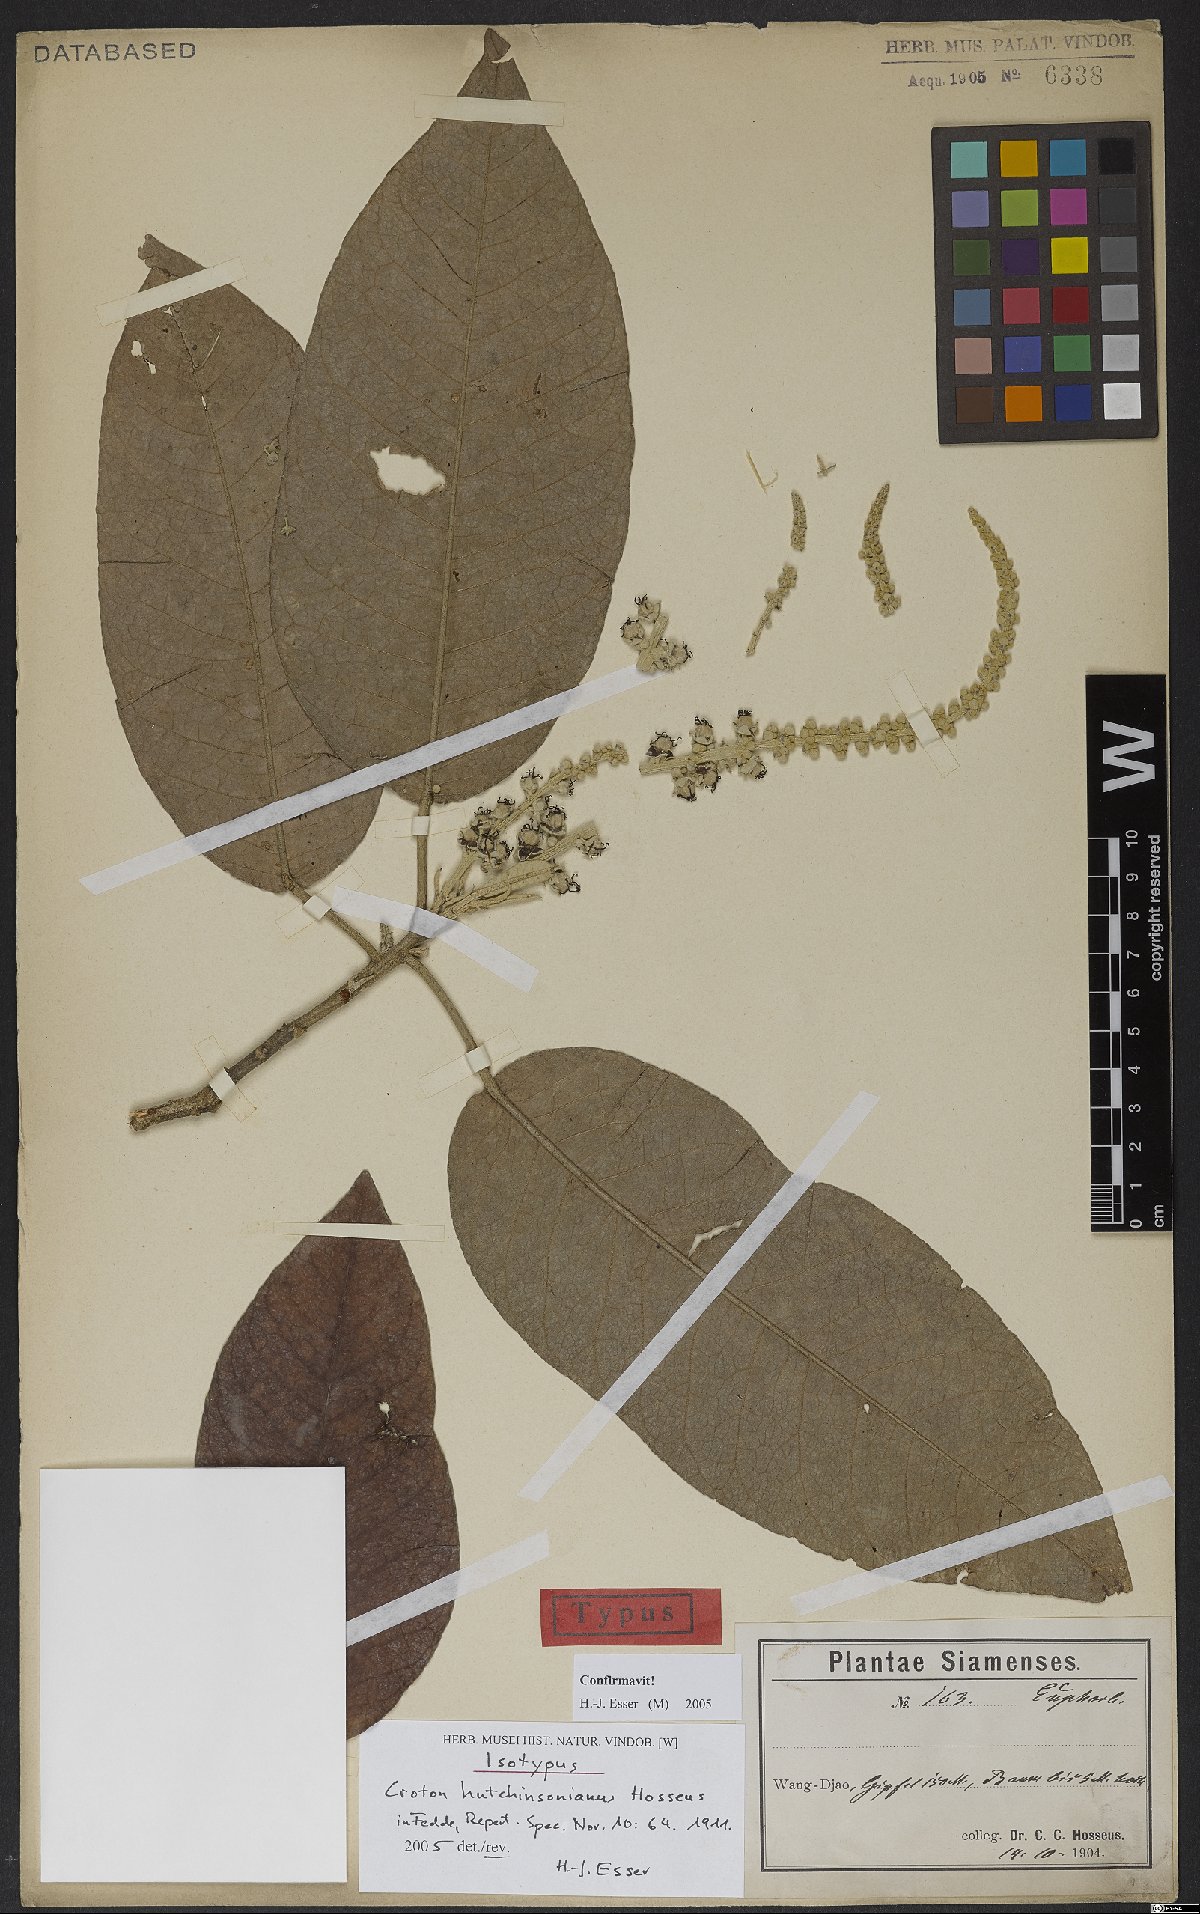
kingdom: Plantae
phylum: Tracheophyta
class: Magnoliopsida
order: Malpighiales
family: Euphorbiaceae
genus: Croton
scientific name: Croton hutchinsonianus
